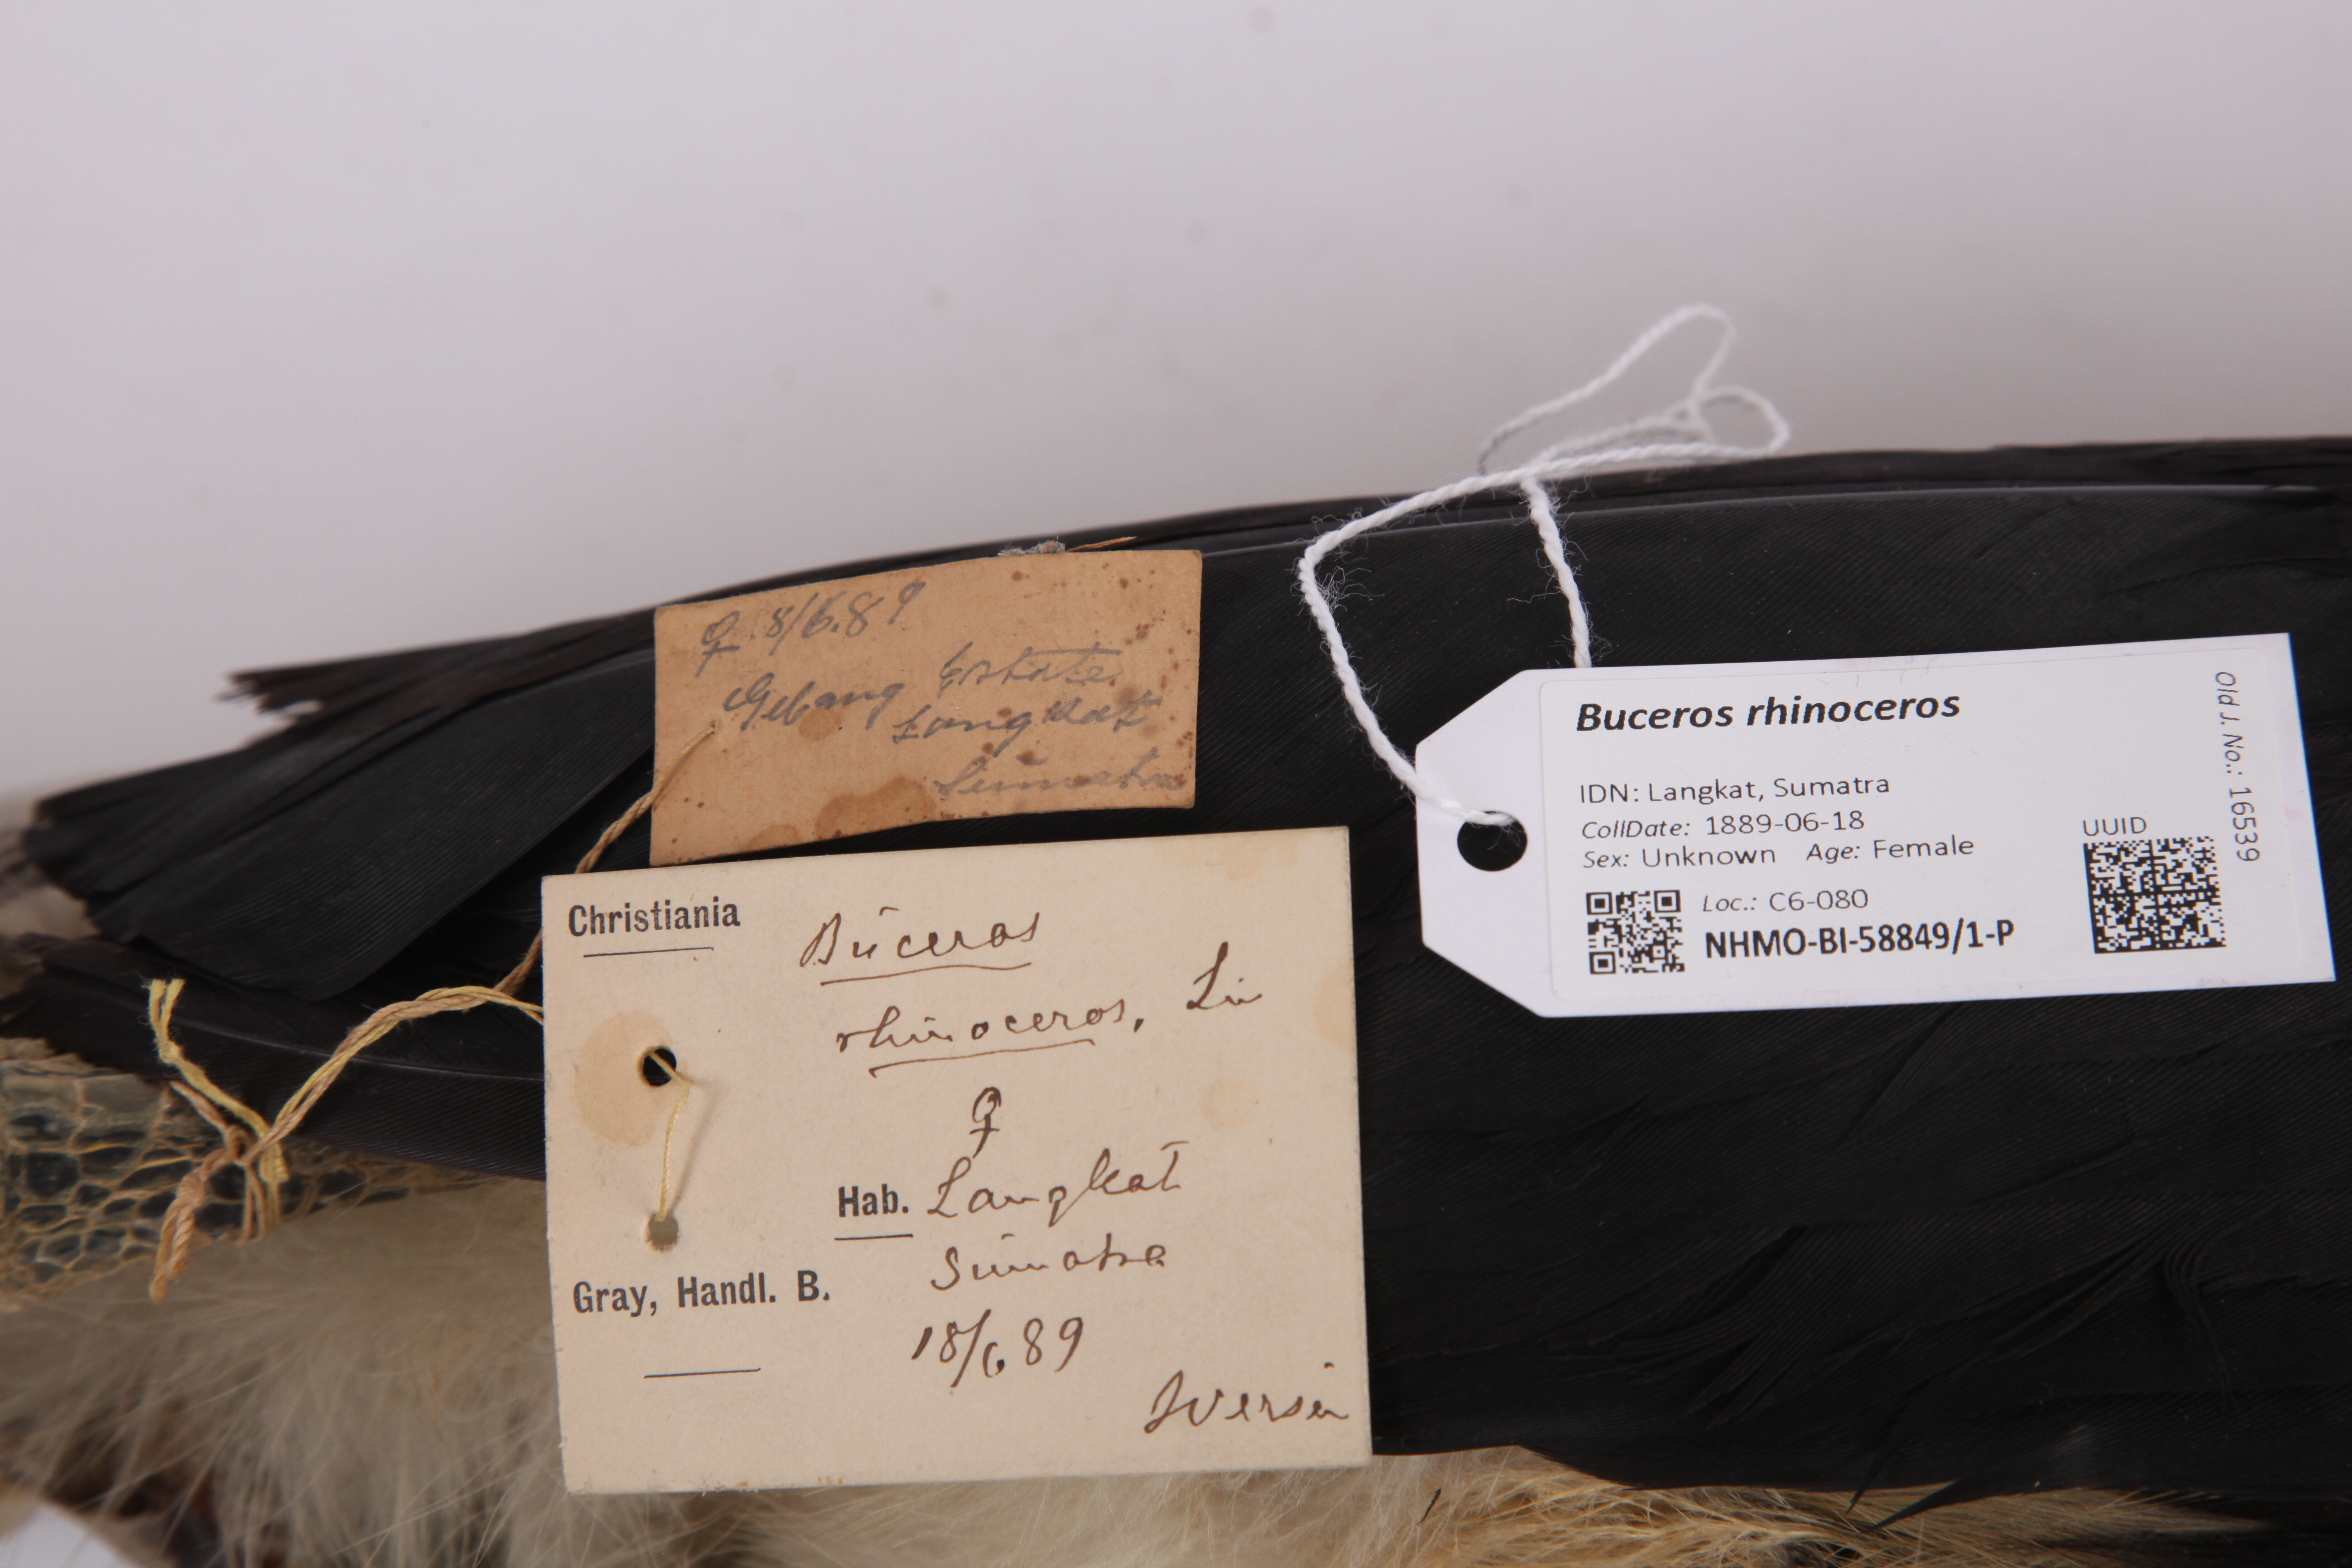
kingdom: Animalia
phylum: Chordata
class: Aves
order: Bucerotiformes
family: Bucerotidae
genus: Buceros
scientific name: Buceros rhinoceros
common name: Rhinoceros hornbill
